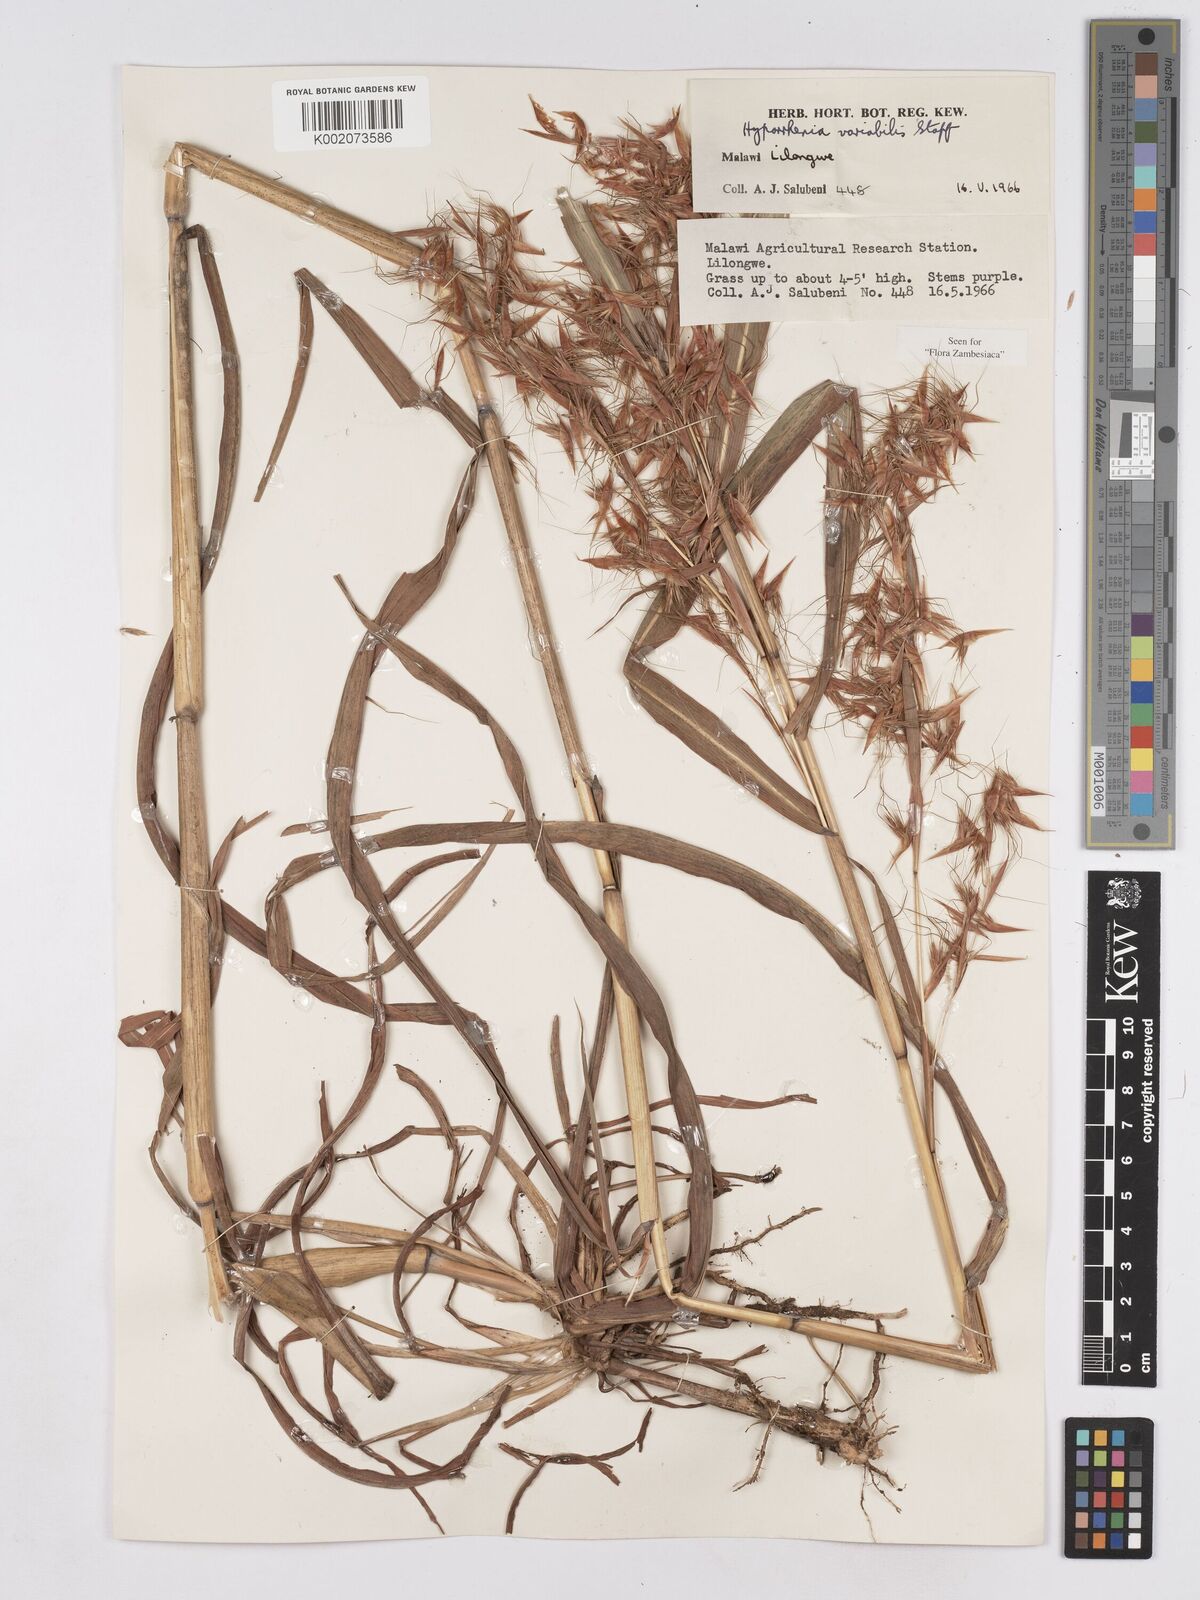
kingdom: Plantae
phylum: Tracheophyta
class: Liliopsida
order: Poales
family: Poaceae
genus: Hyparrhenia
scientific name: Hyparrhenia variabilis
